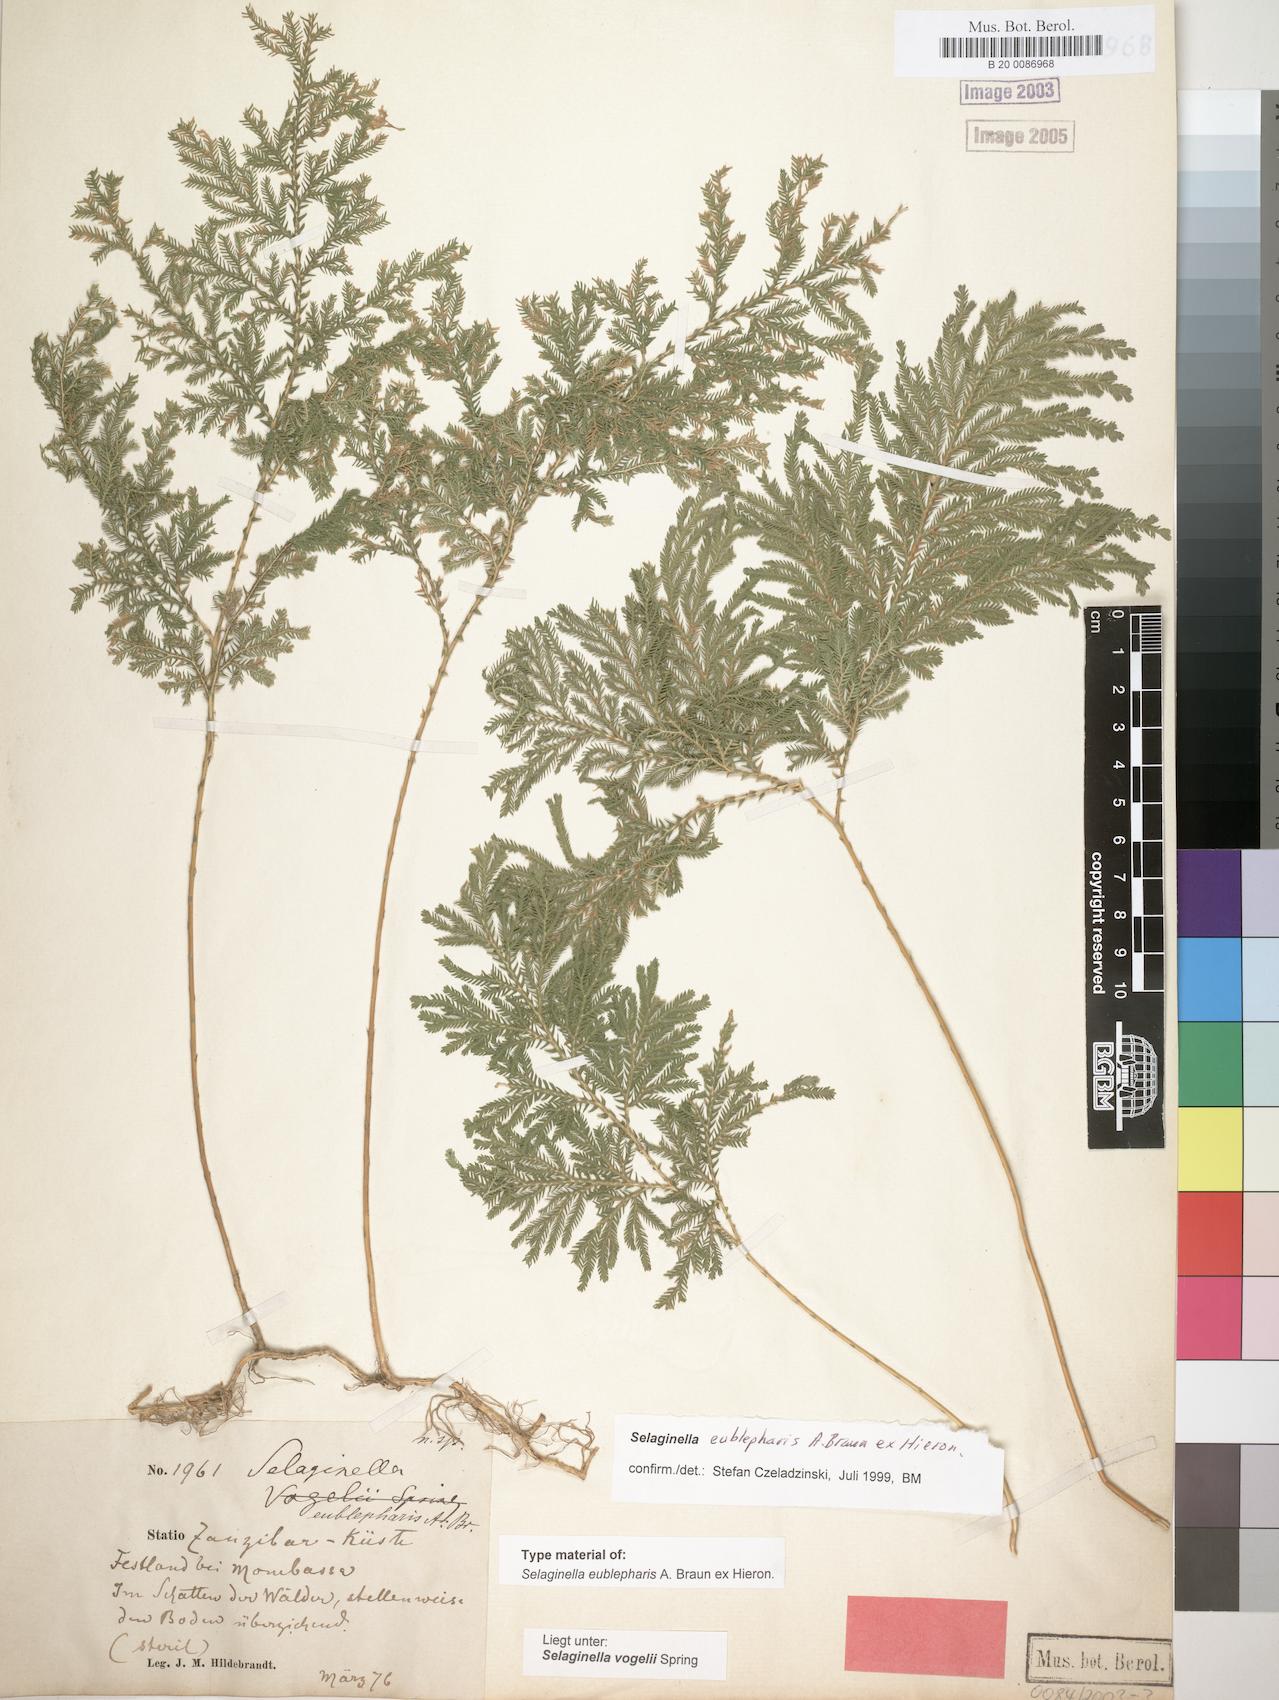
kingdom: Plantae
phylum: Tracheophyta
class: Lycopodiopsida
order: Selaginellales
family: Selaginellaceae
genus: Selaginella
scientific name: Selaginella eublepharis
